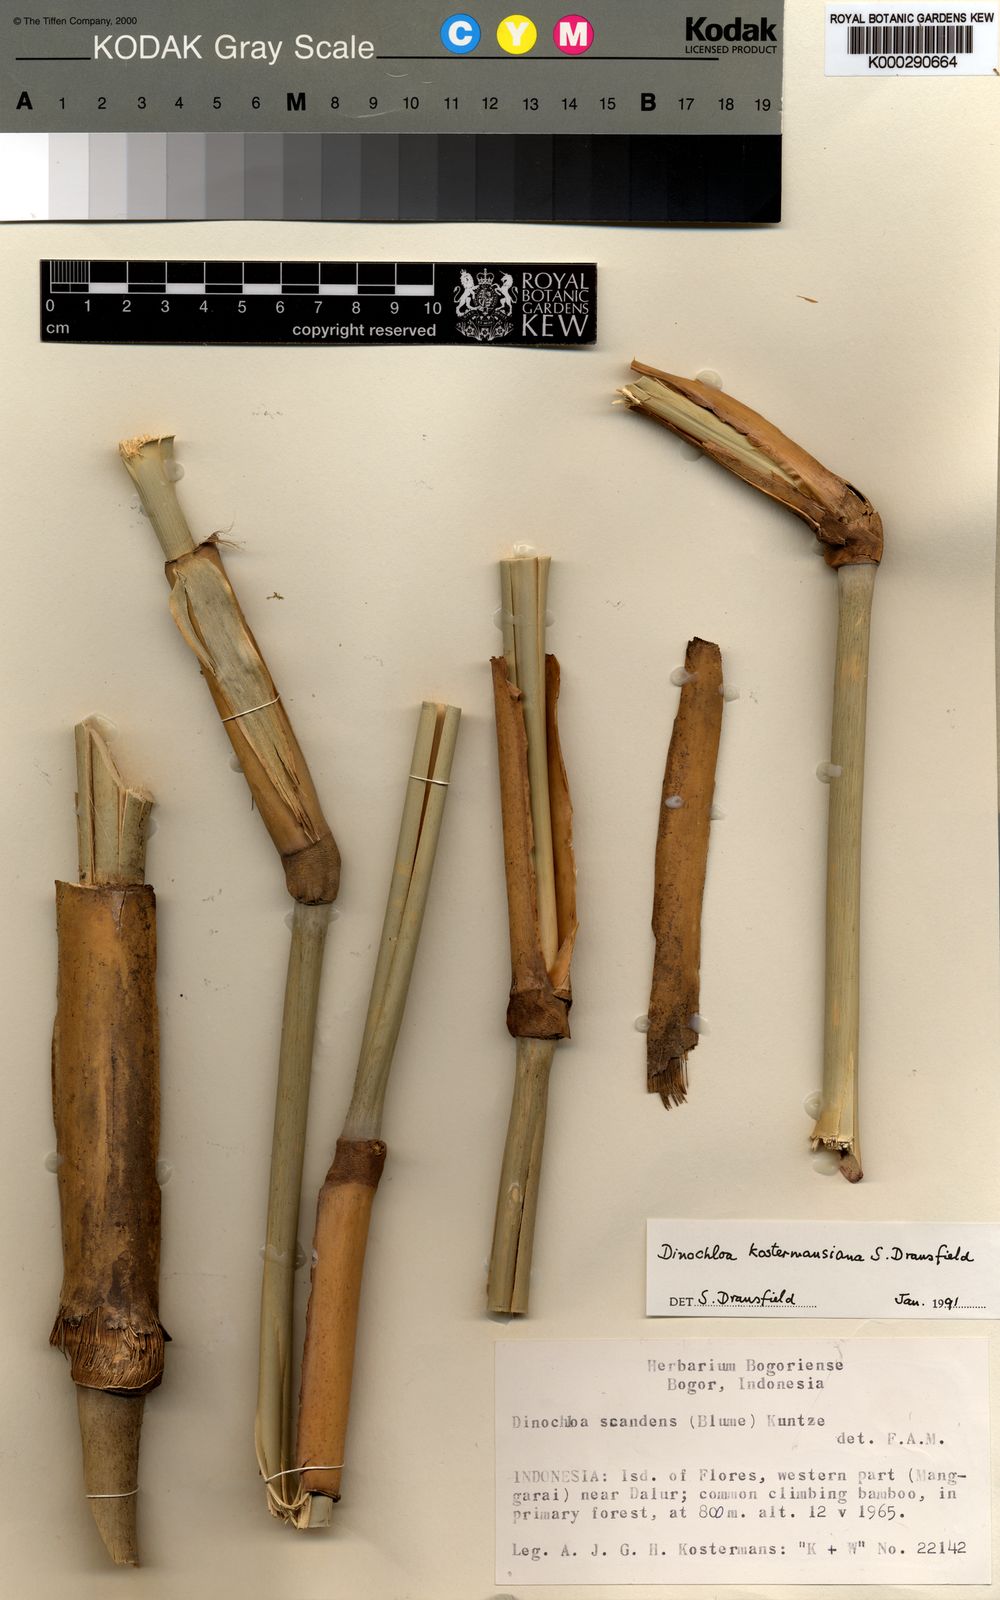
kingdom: Plantae
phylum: Tracheophyta
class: Liliopsida
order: Poales
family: Poaceae
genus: Dinochloa
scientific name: Dinochloa kostermansiana
